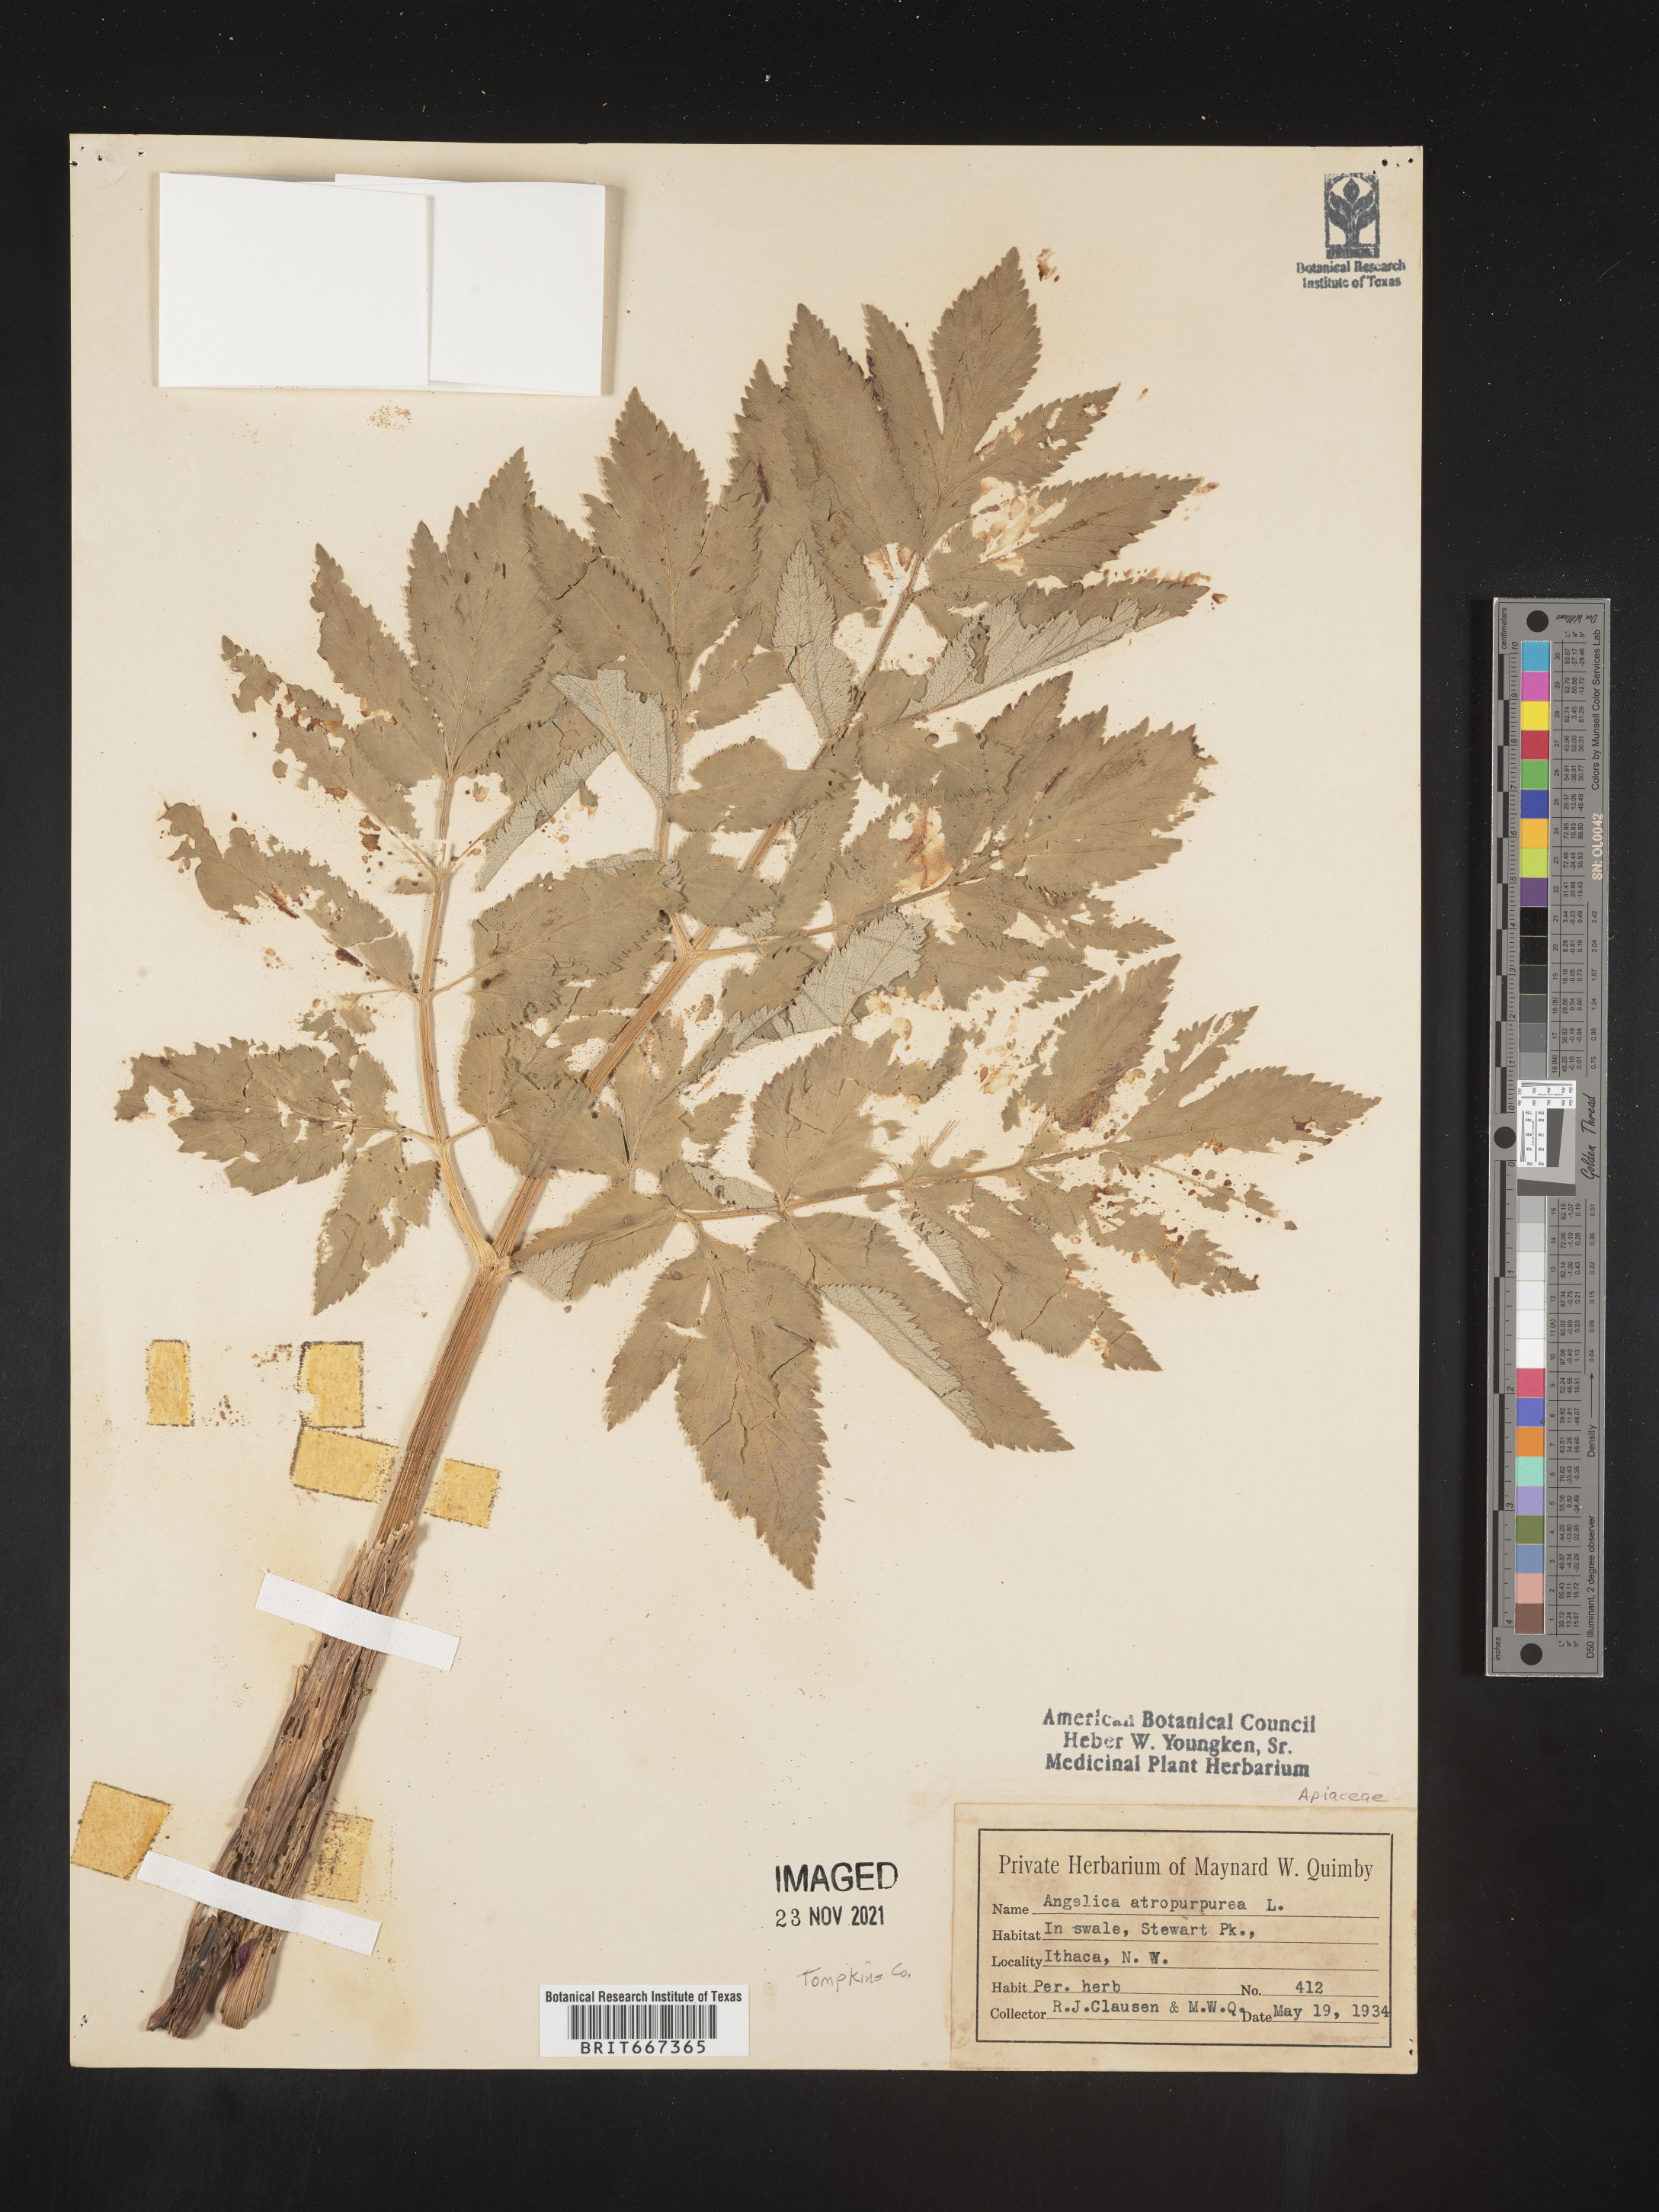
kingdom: Plantae
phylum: Tracheophyta
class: Magnoliopsida
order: Apiales
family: Apiaceae
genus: Angelica
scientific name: Angelica atropurpurea
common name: Great angelica
